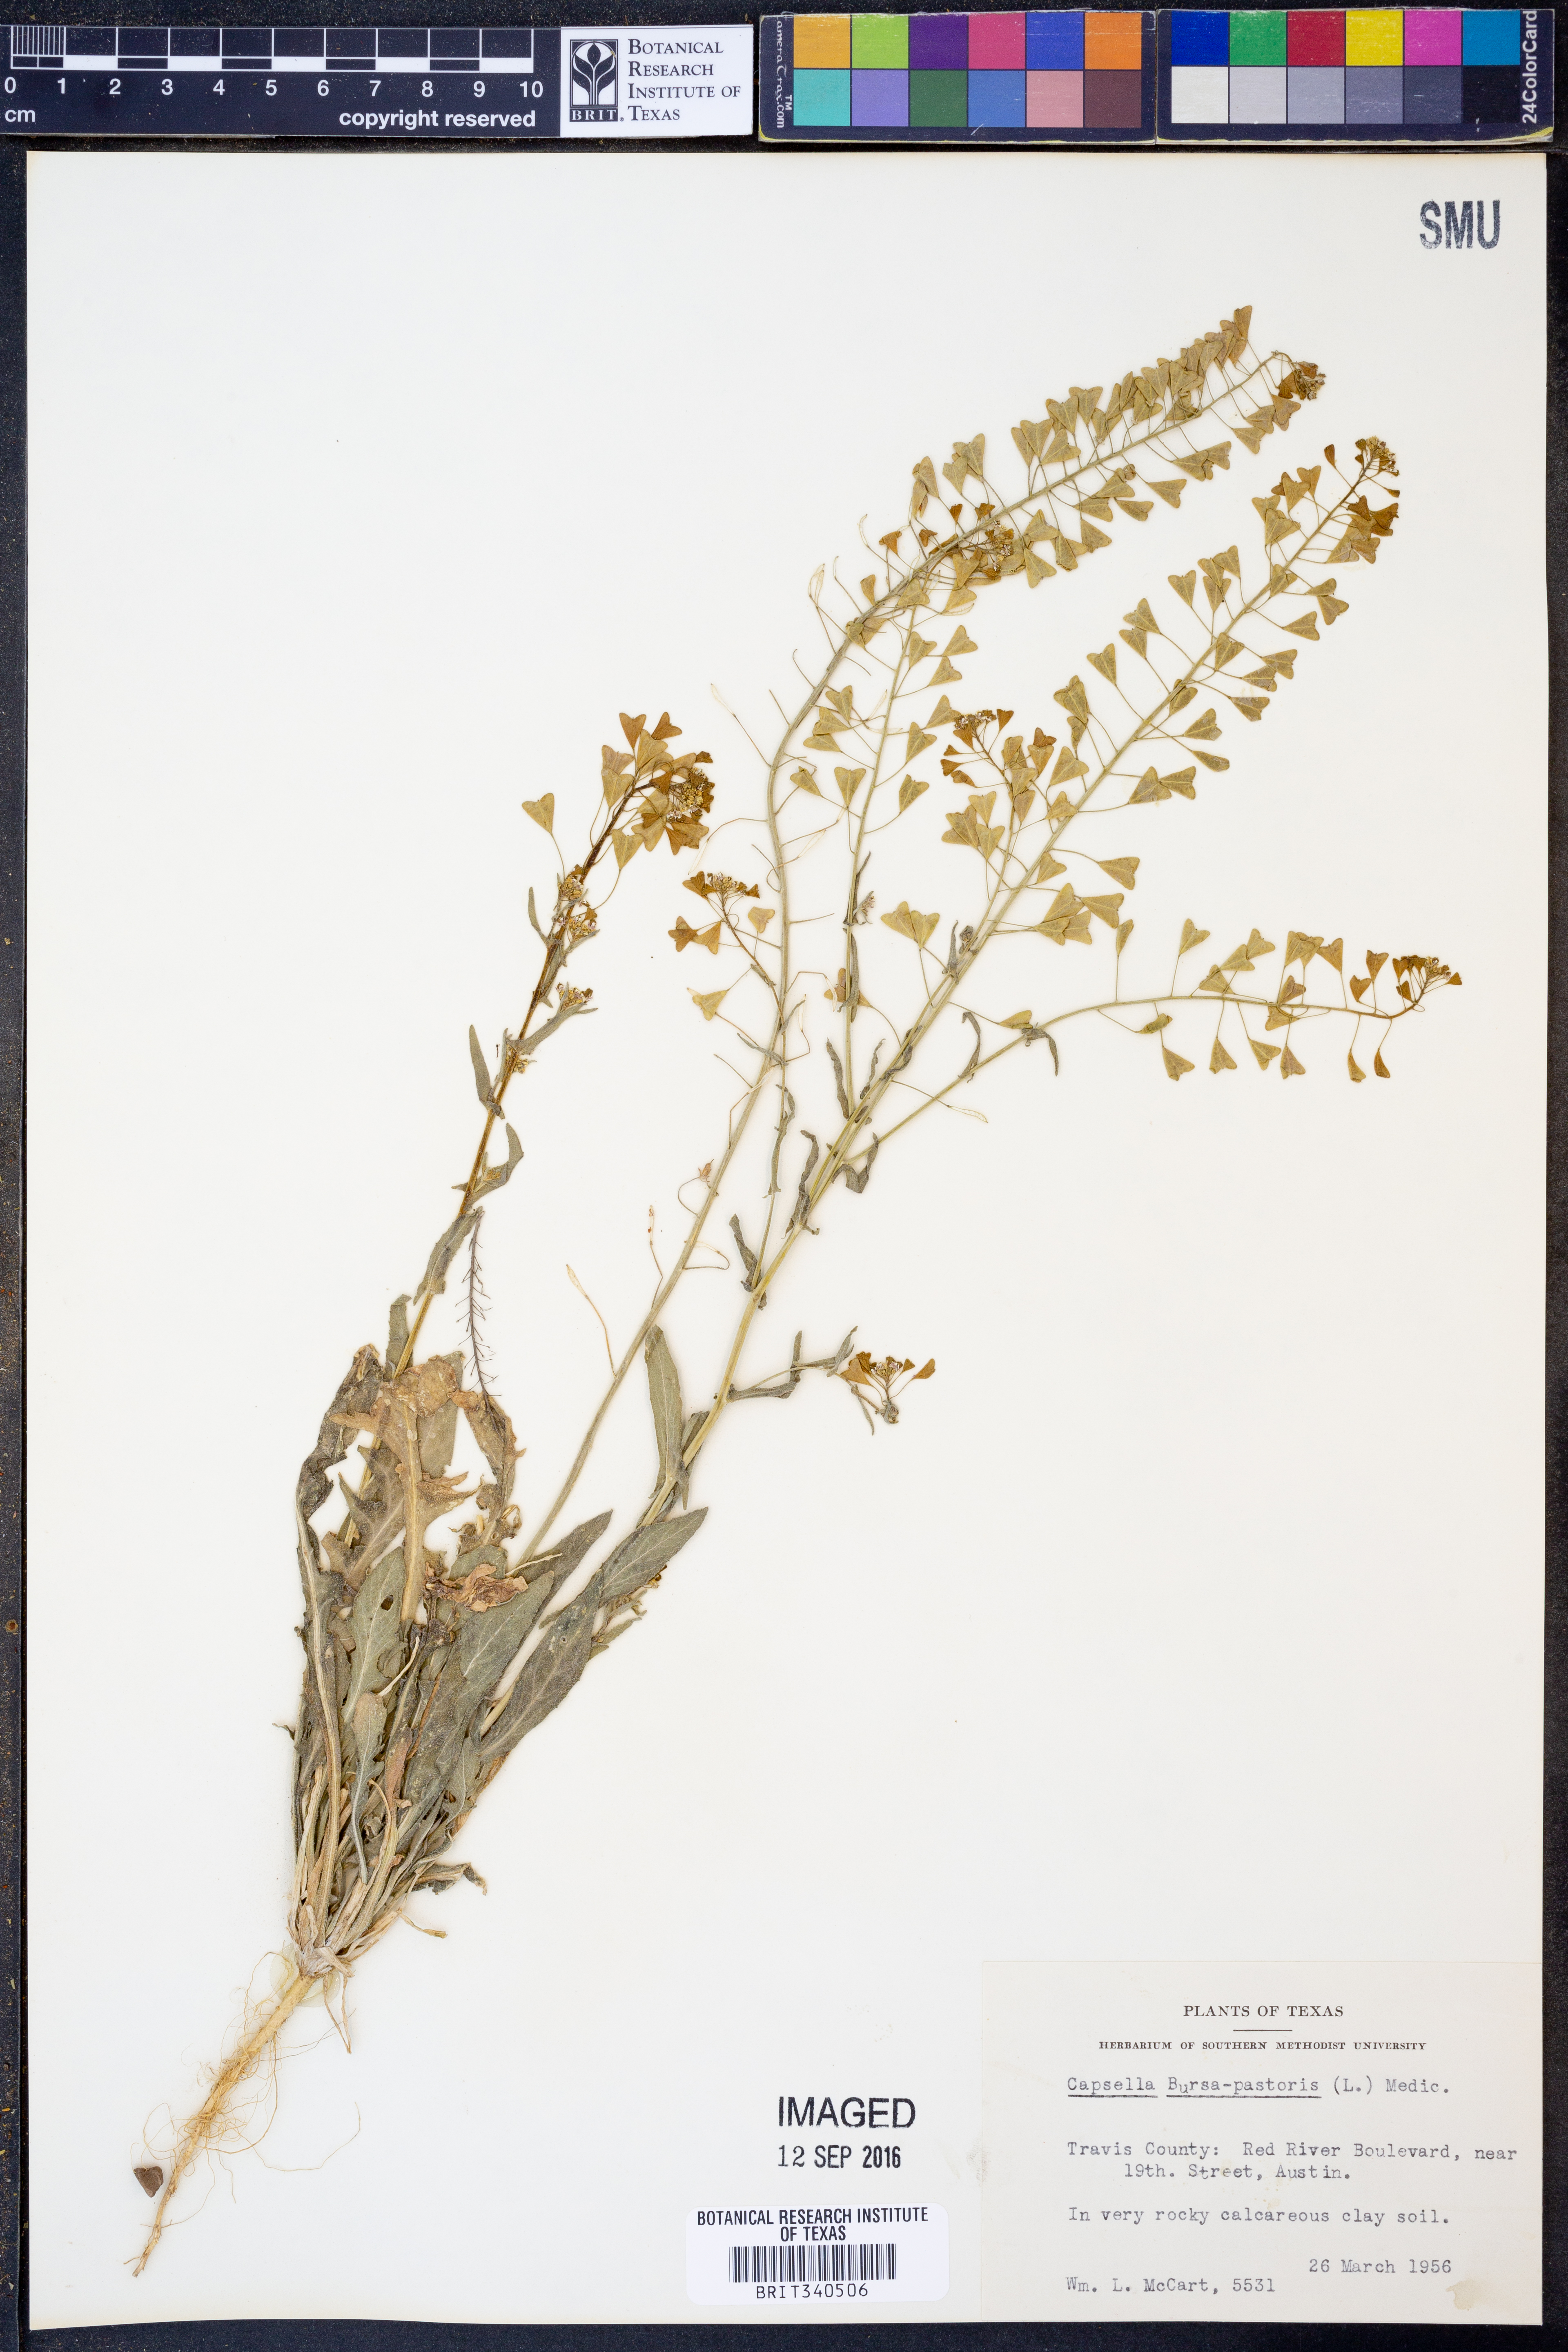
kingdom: Plantae
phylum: Tracheophyta
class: Magnoliopsida
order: Brassicales
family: Brassicaceae
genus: Capsella
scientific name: Capsella bursa-pastoris
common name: Shepherd's purse
